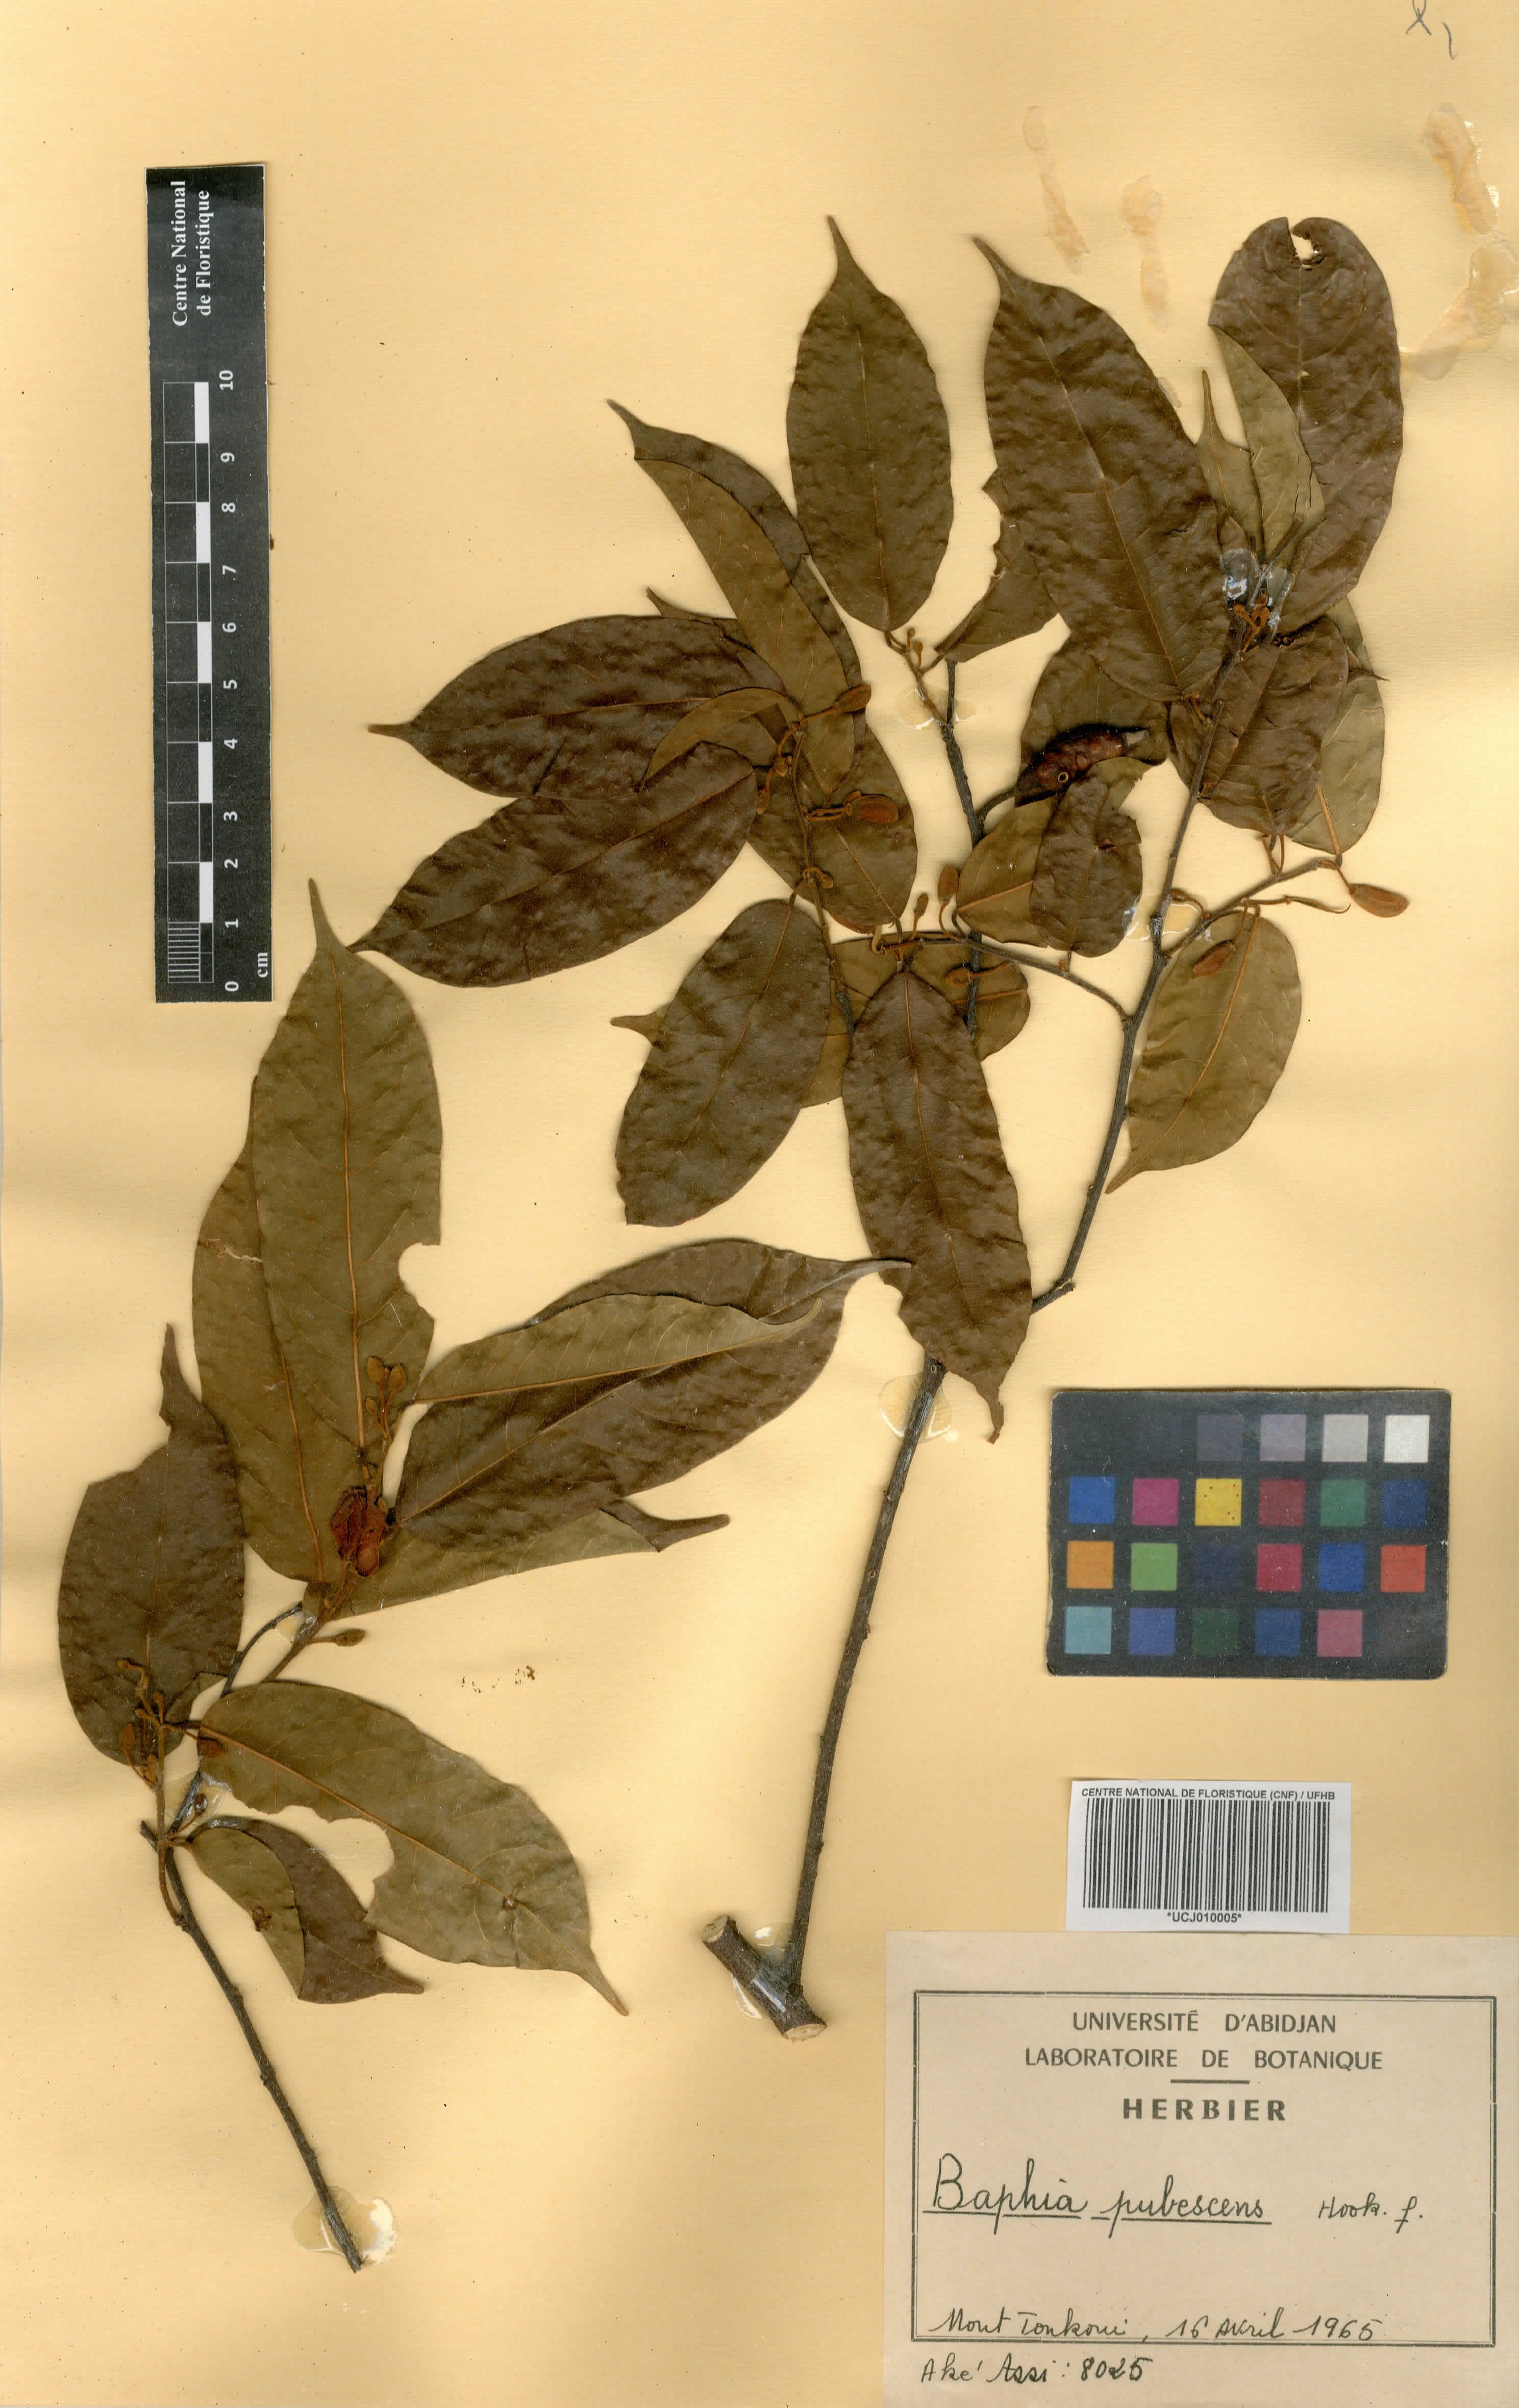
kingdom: Plantae
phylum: Tracheophyta
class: Magnoliopsida
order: Fabales
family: Fabaceae
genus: Baphia
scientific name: Baphia pubescens
